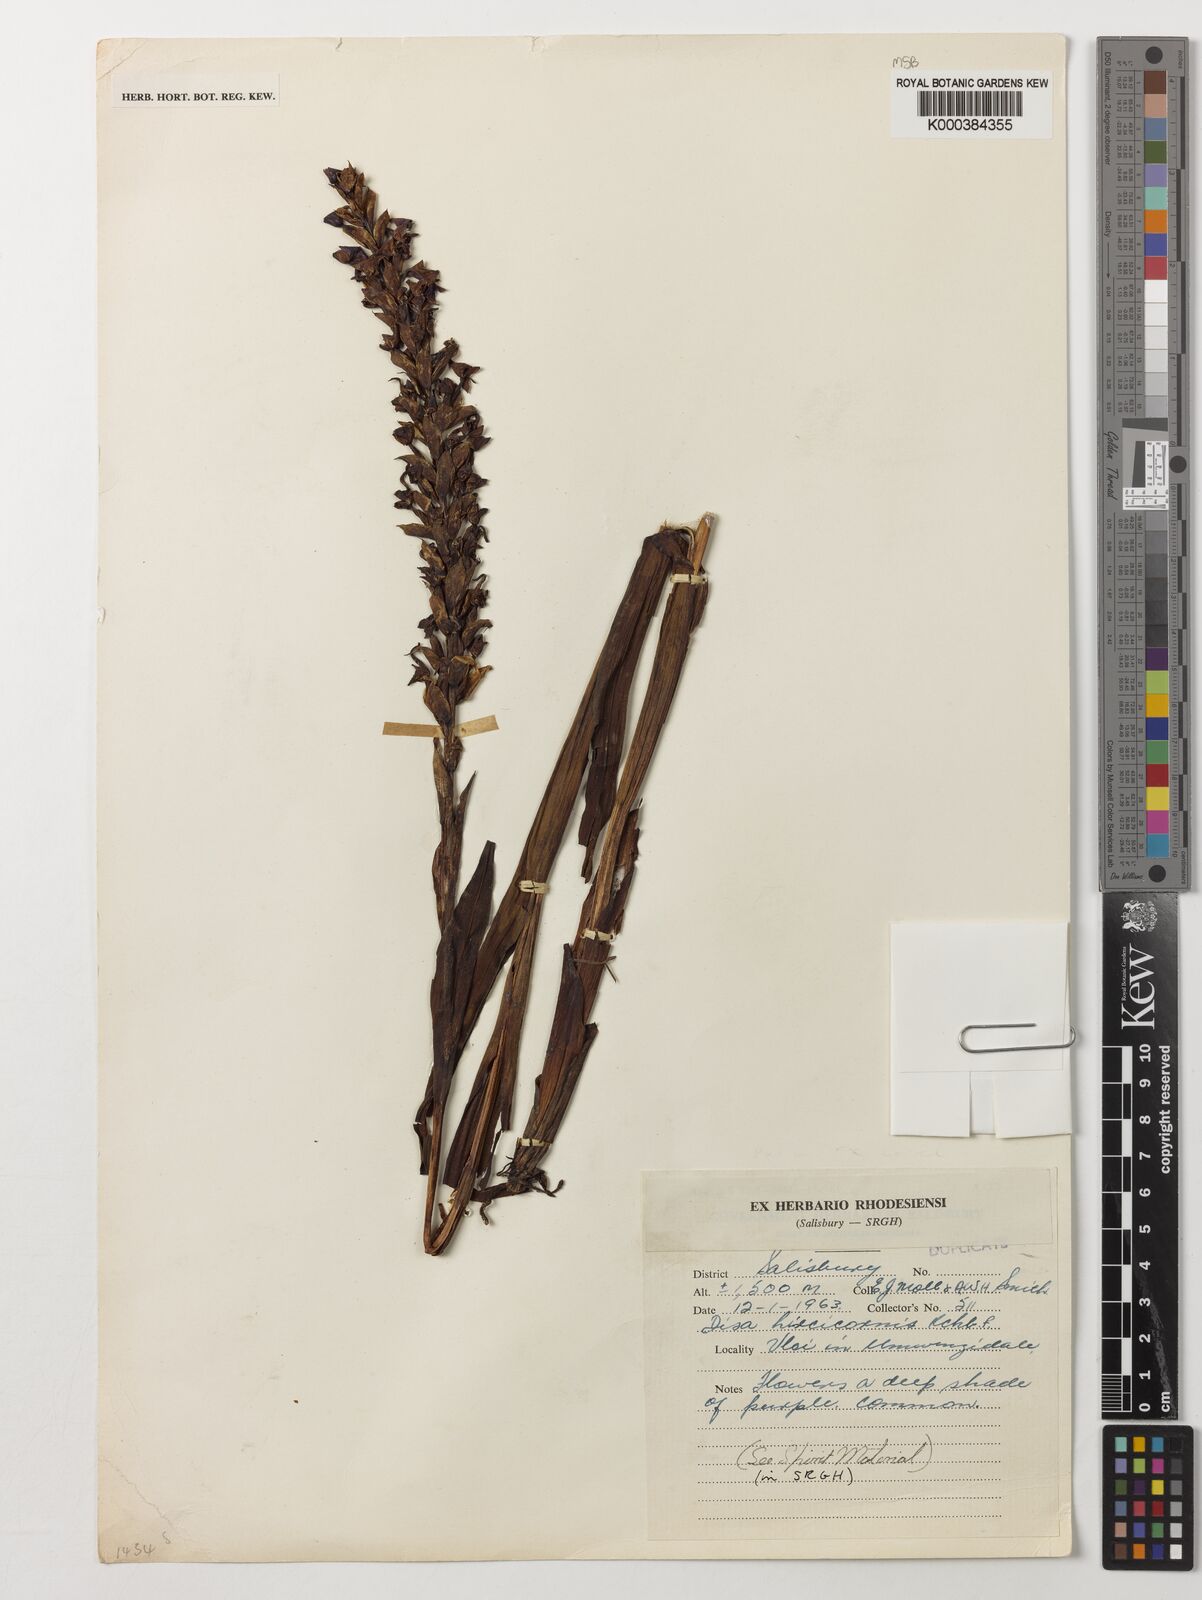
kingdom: Plantae
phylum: Tracheophyta
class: Liliopsida
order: Asparagales
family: Orchidaceae
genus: Disa
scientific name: Disa hircicornis
